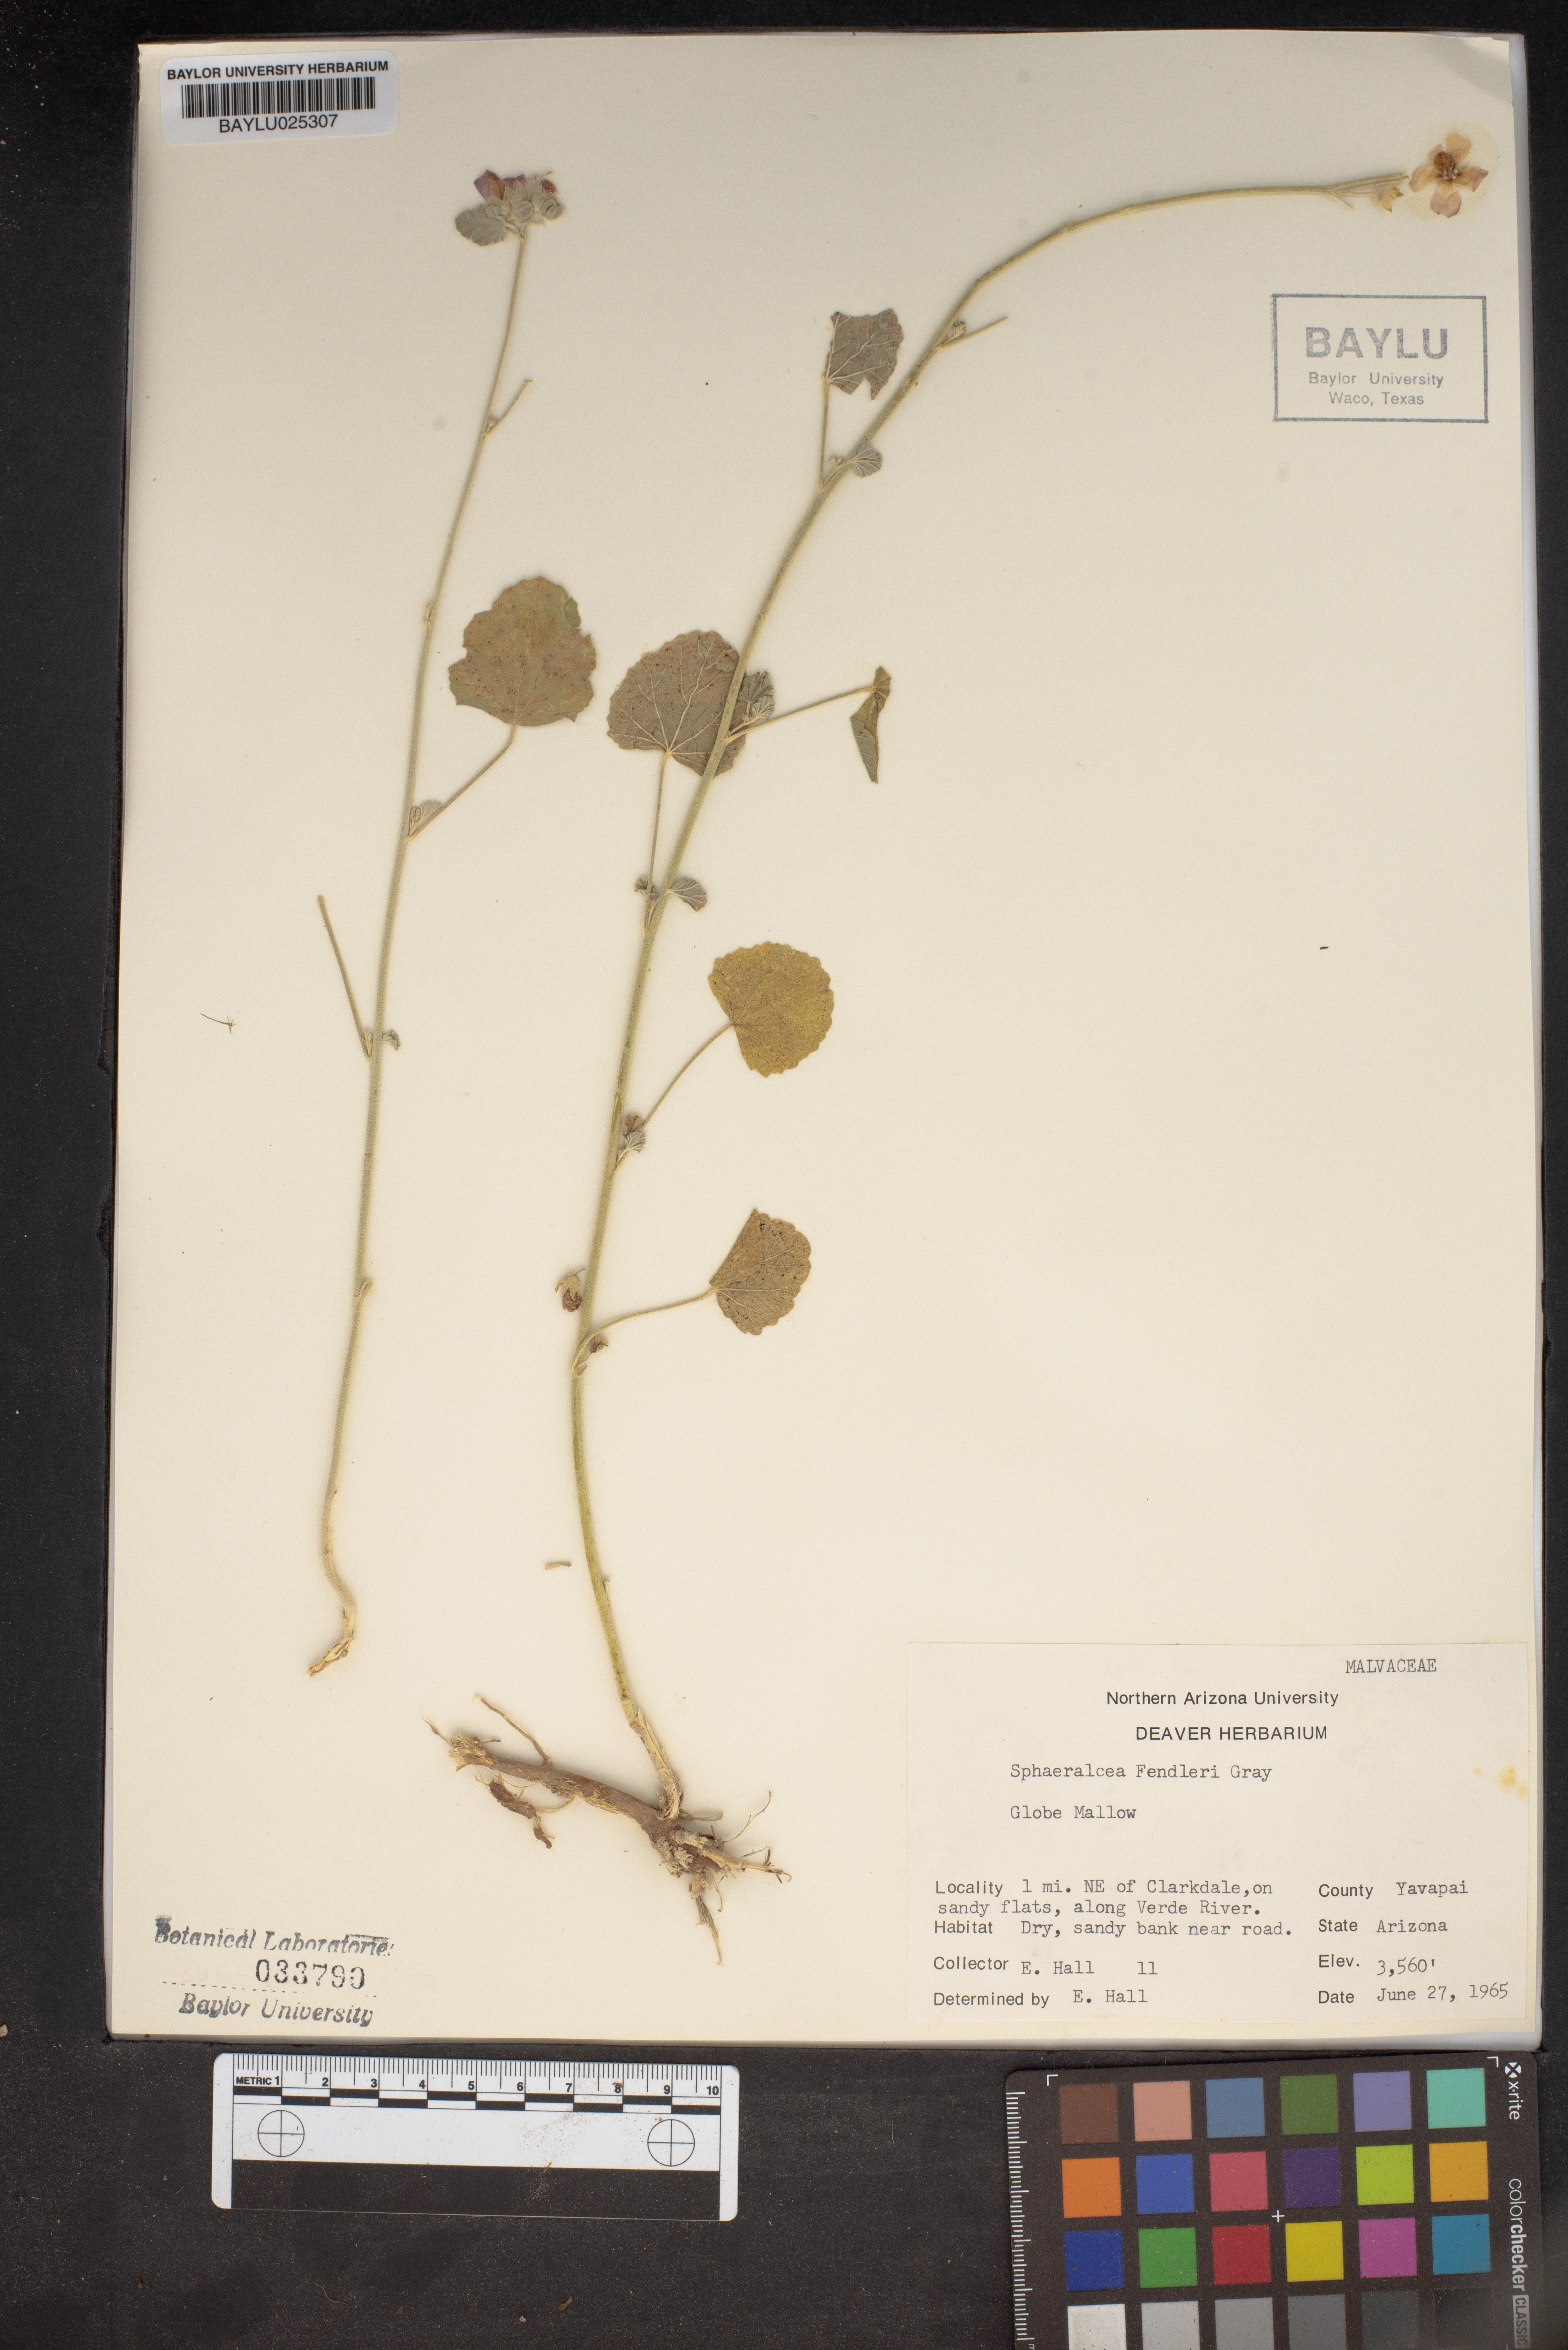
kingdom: Plantae
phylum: Tracheophyta
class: Magnoliopsida
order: Malvales
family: Malvaceae
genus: Sphaeralcea
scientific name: Sphaeralcea fendleri
